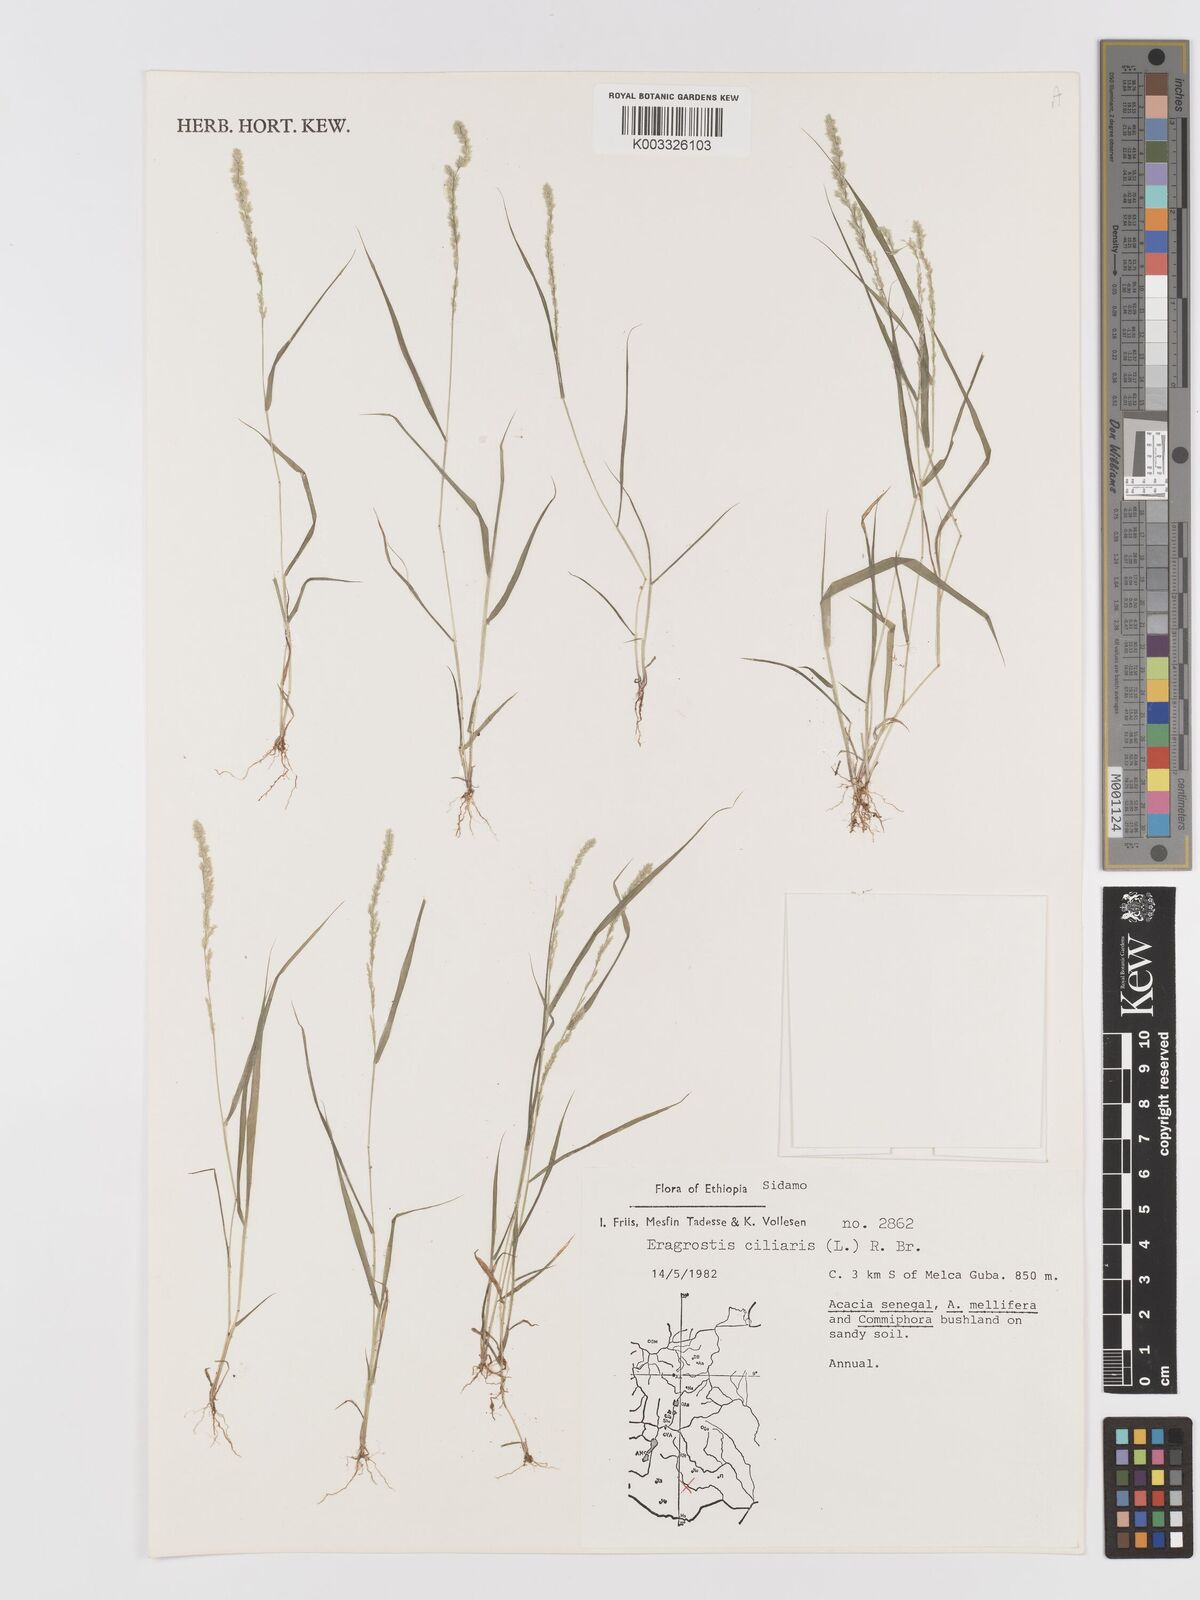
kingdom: Plantae
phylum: Tracheophyta
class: Liliopsida
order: Poales
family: Poaceae
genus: Eragrostis
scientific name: Eragrostis ciliaris
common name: Gophertail lovegrass
